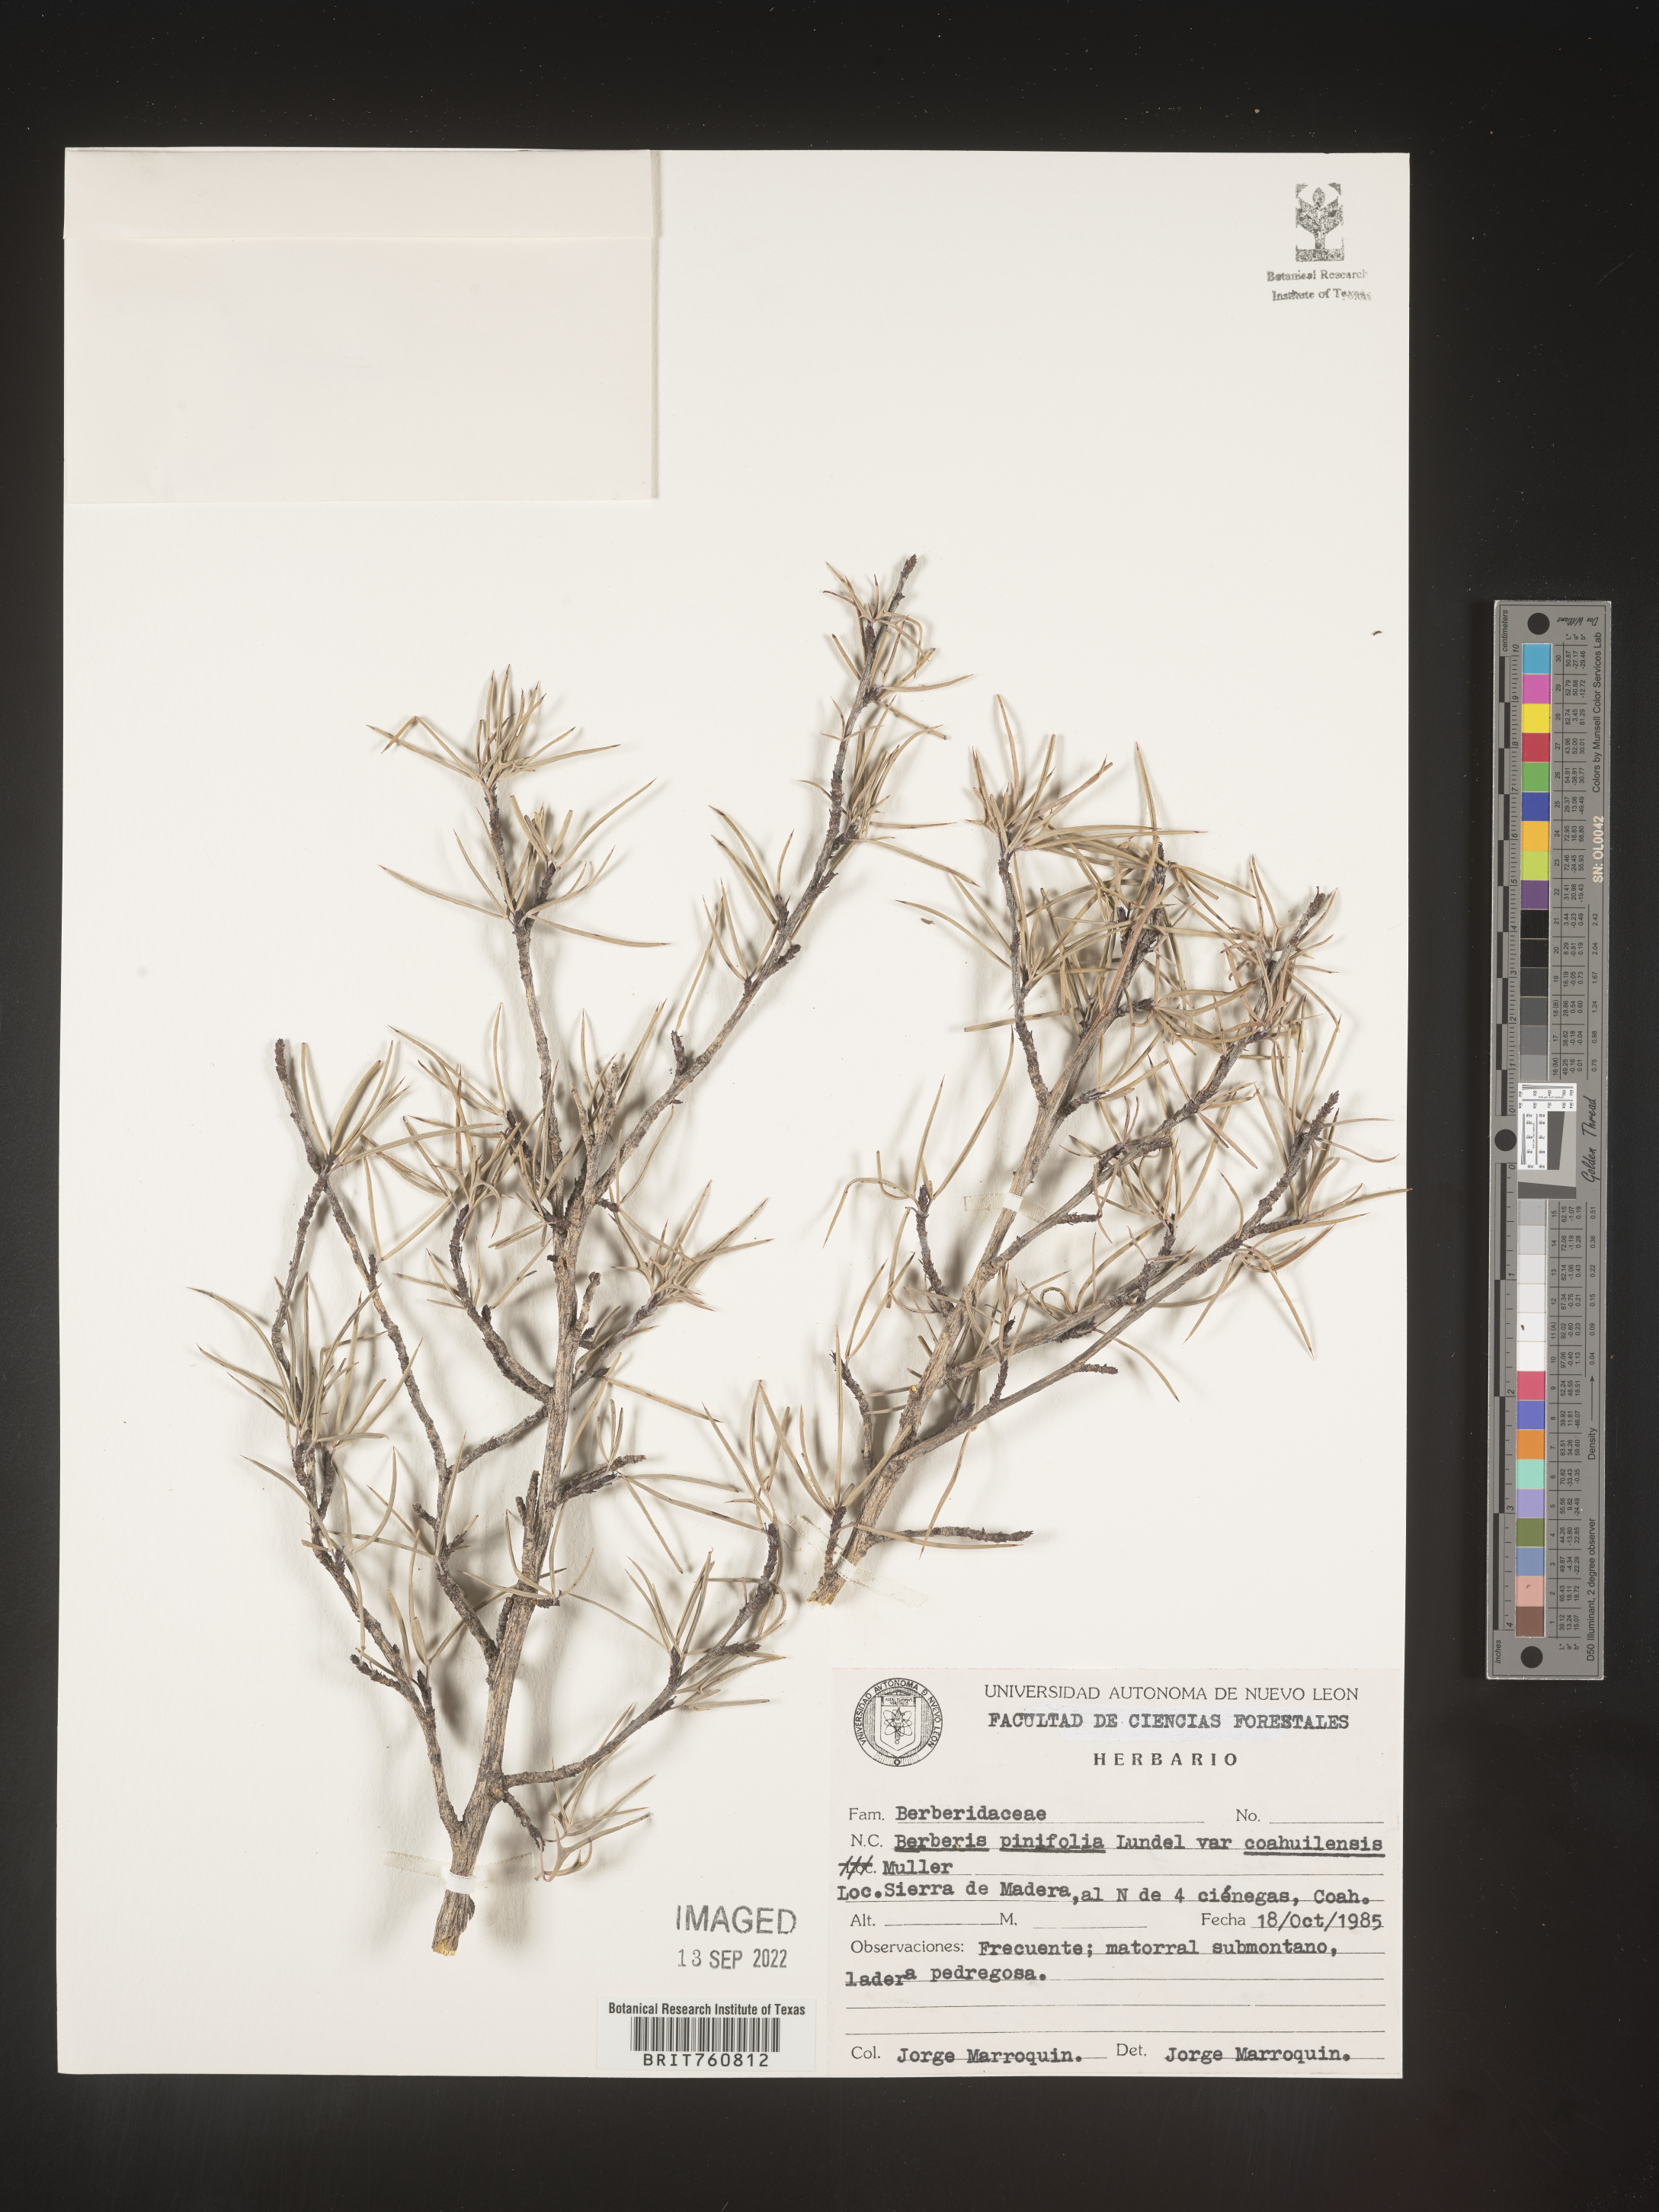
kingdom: Plantae
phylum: Tracheophyta
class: Magnoliopsida
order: Ranunculales
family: Berberidaceae
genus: Berberis
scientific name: Berberis
